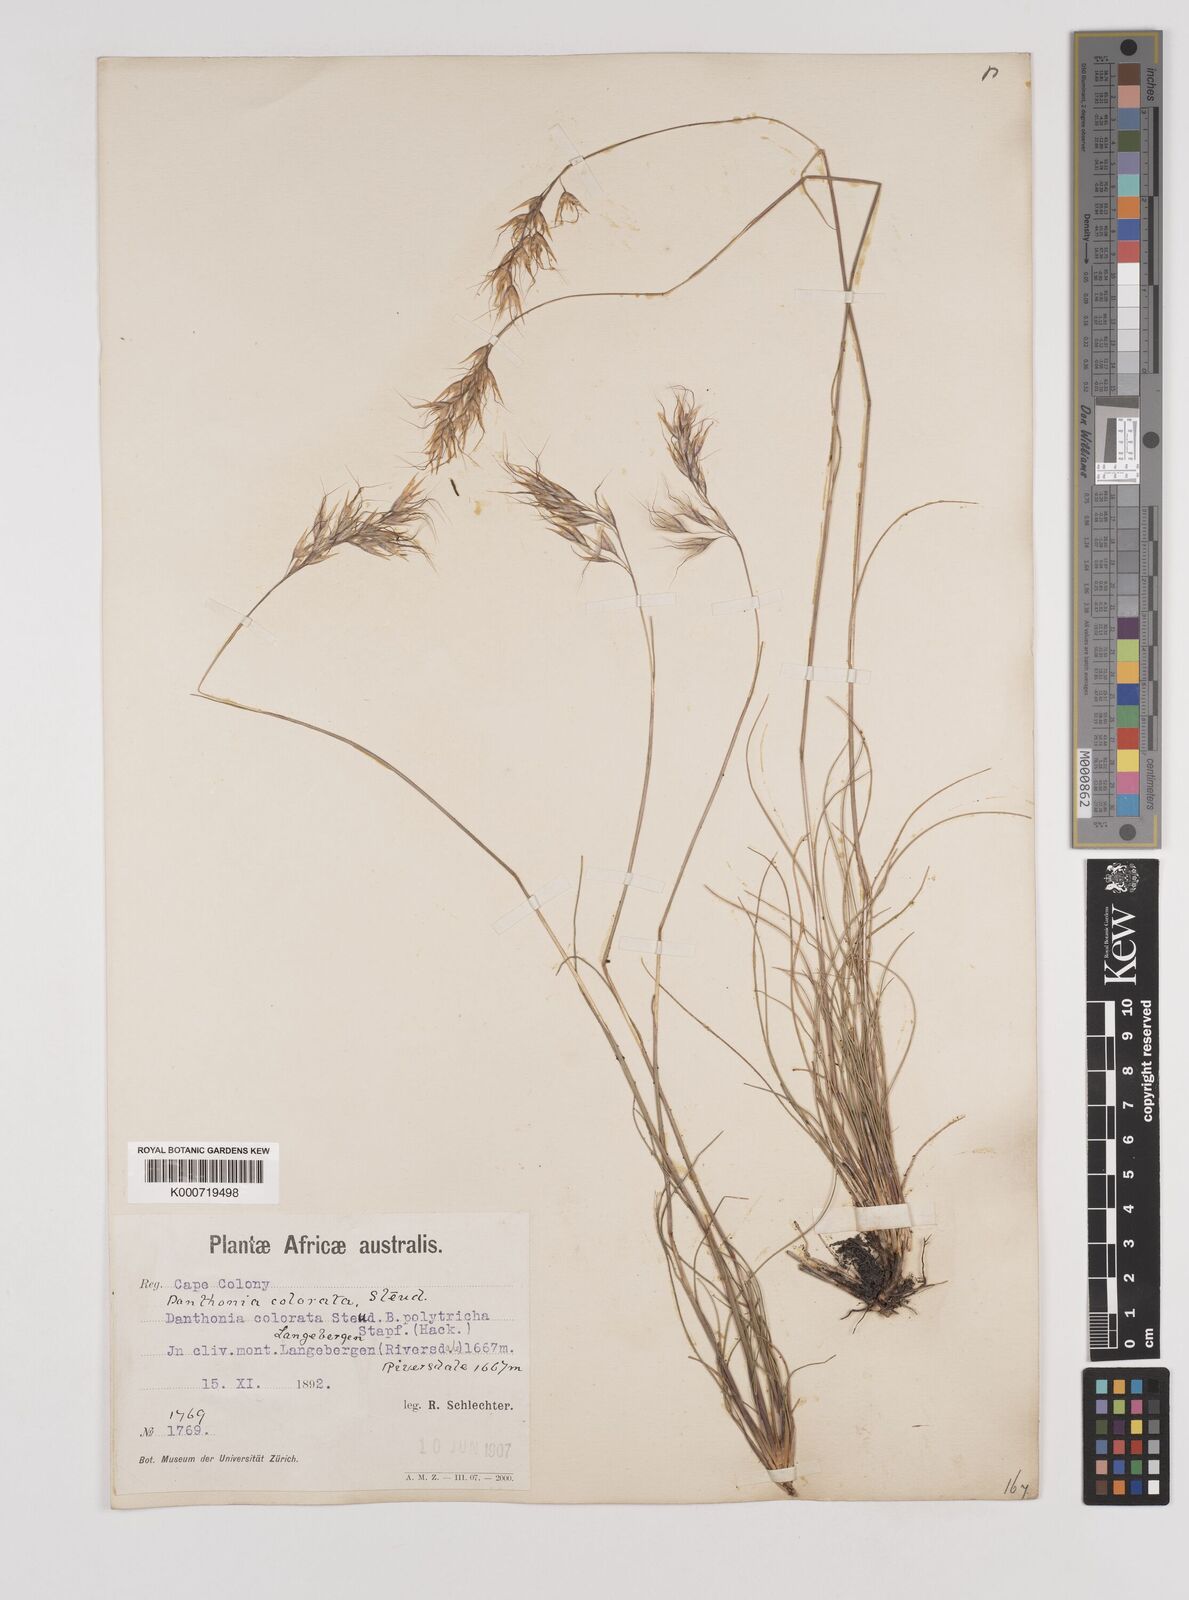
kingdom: Plantae
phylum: Tracheophyta
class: Liliopsida
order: Poales
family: Poaceae
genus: Pentameris
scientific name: Pentameris colorata
